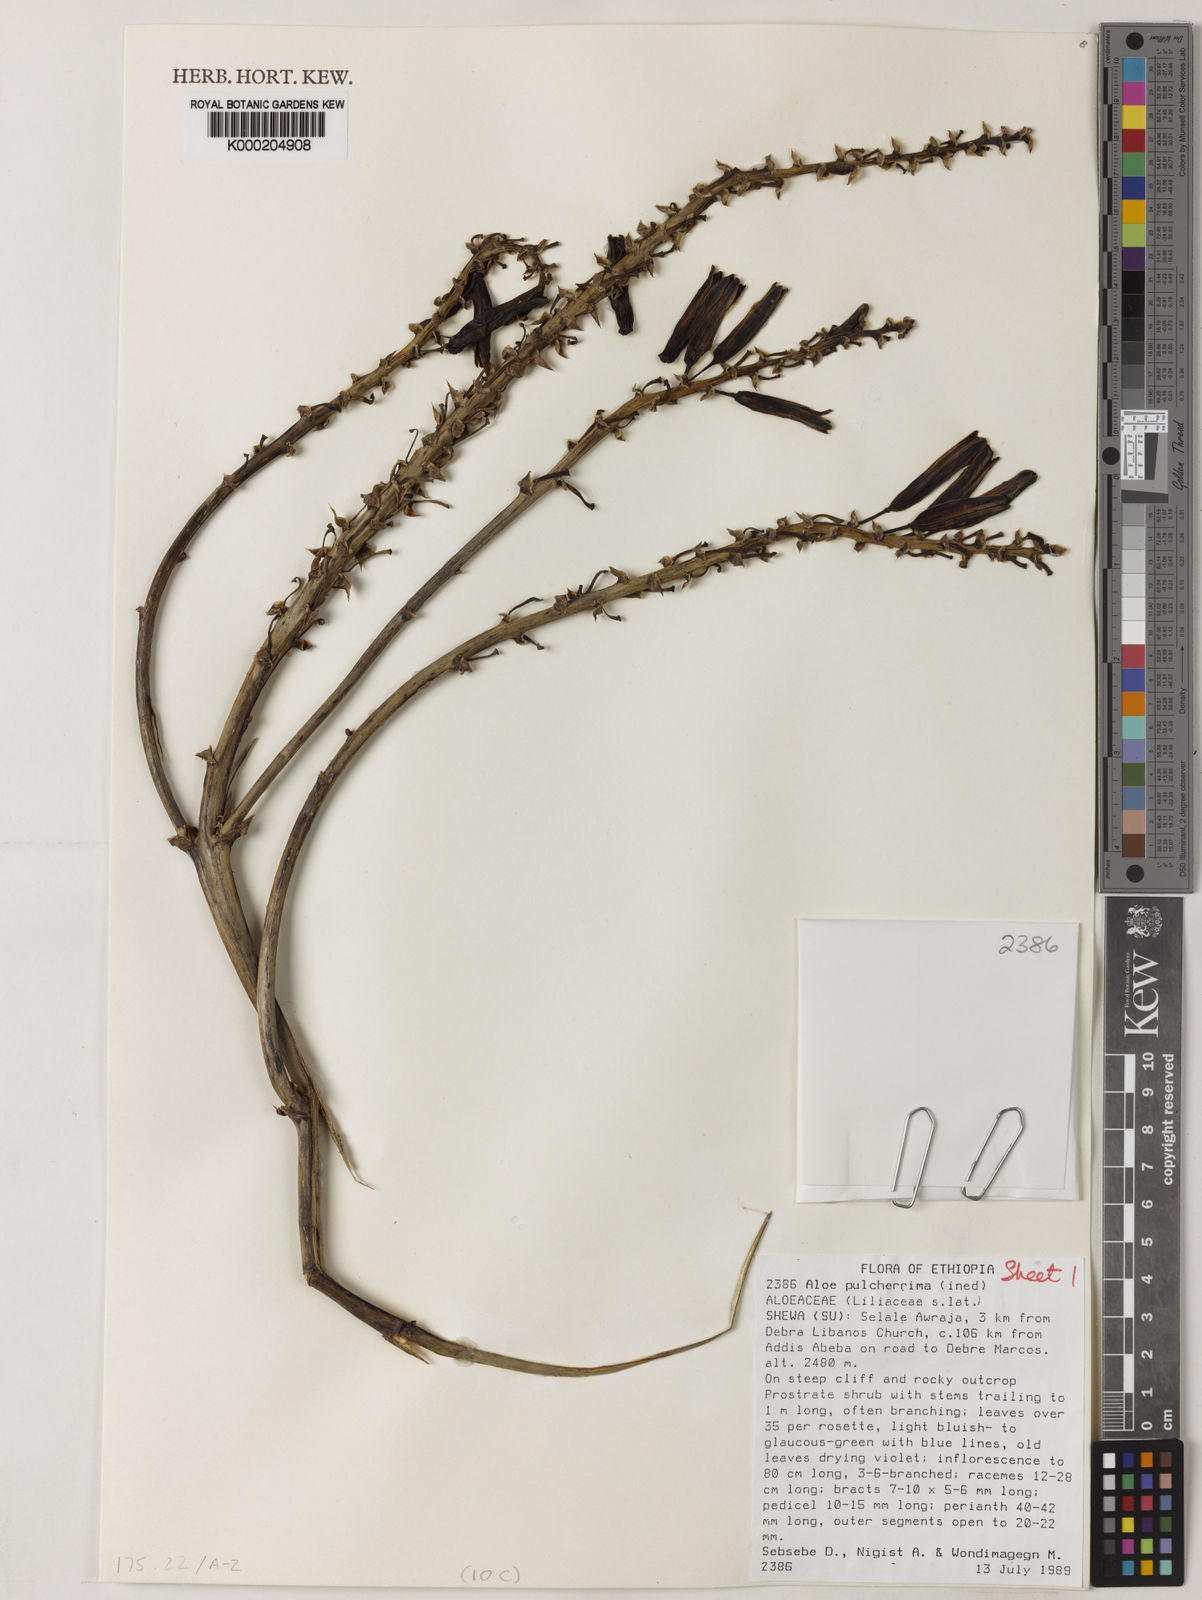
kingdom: Plantae
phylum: Tracheophyta
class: Liliopsida
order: Asparagales
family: Asphodelaceae
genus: Aloe
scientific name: Aloe pulcherrima
